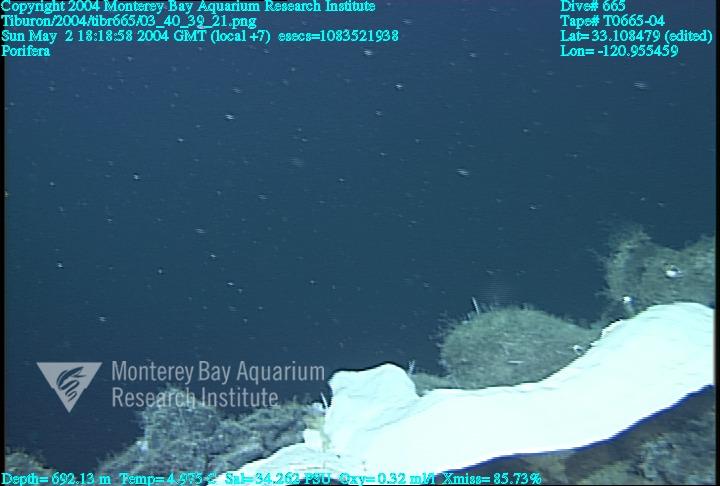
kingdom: Animalia
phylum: Porifera
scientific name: Porifera
